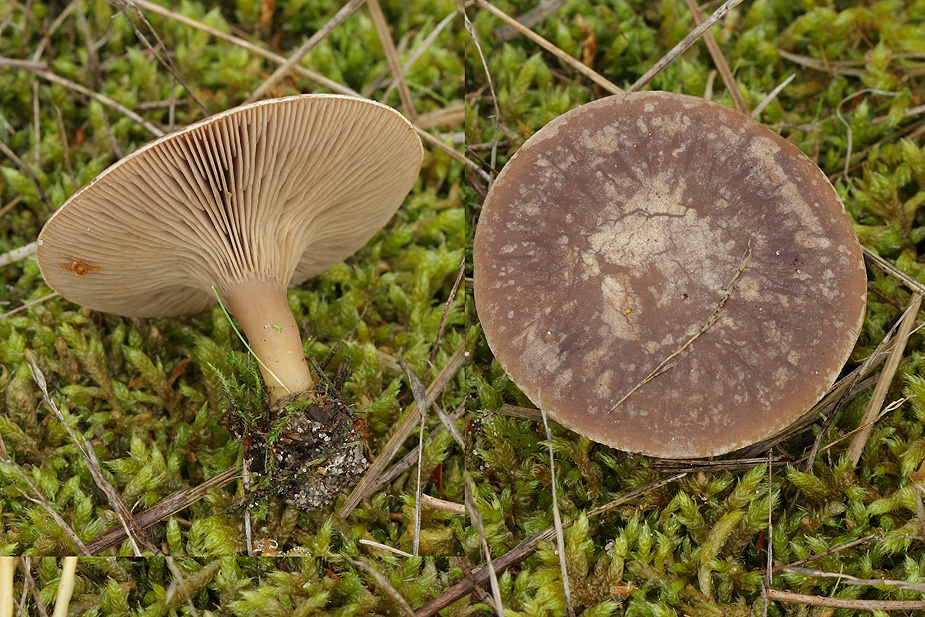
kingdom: Fungi
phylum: Basidiomycota
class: Agaricomycetes
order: Agaricales
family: Tricholomataceae
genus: Lulesia
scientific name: Lulesia
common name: sortnende troldhat
